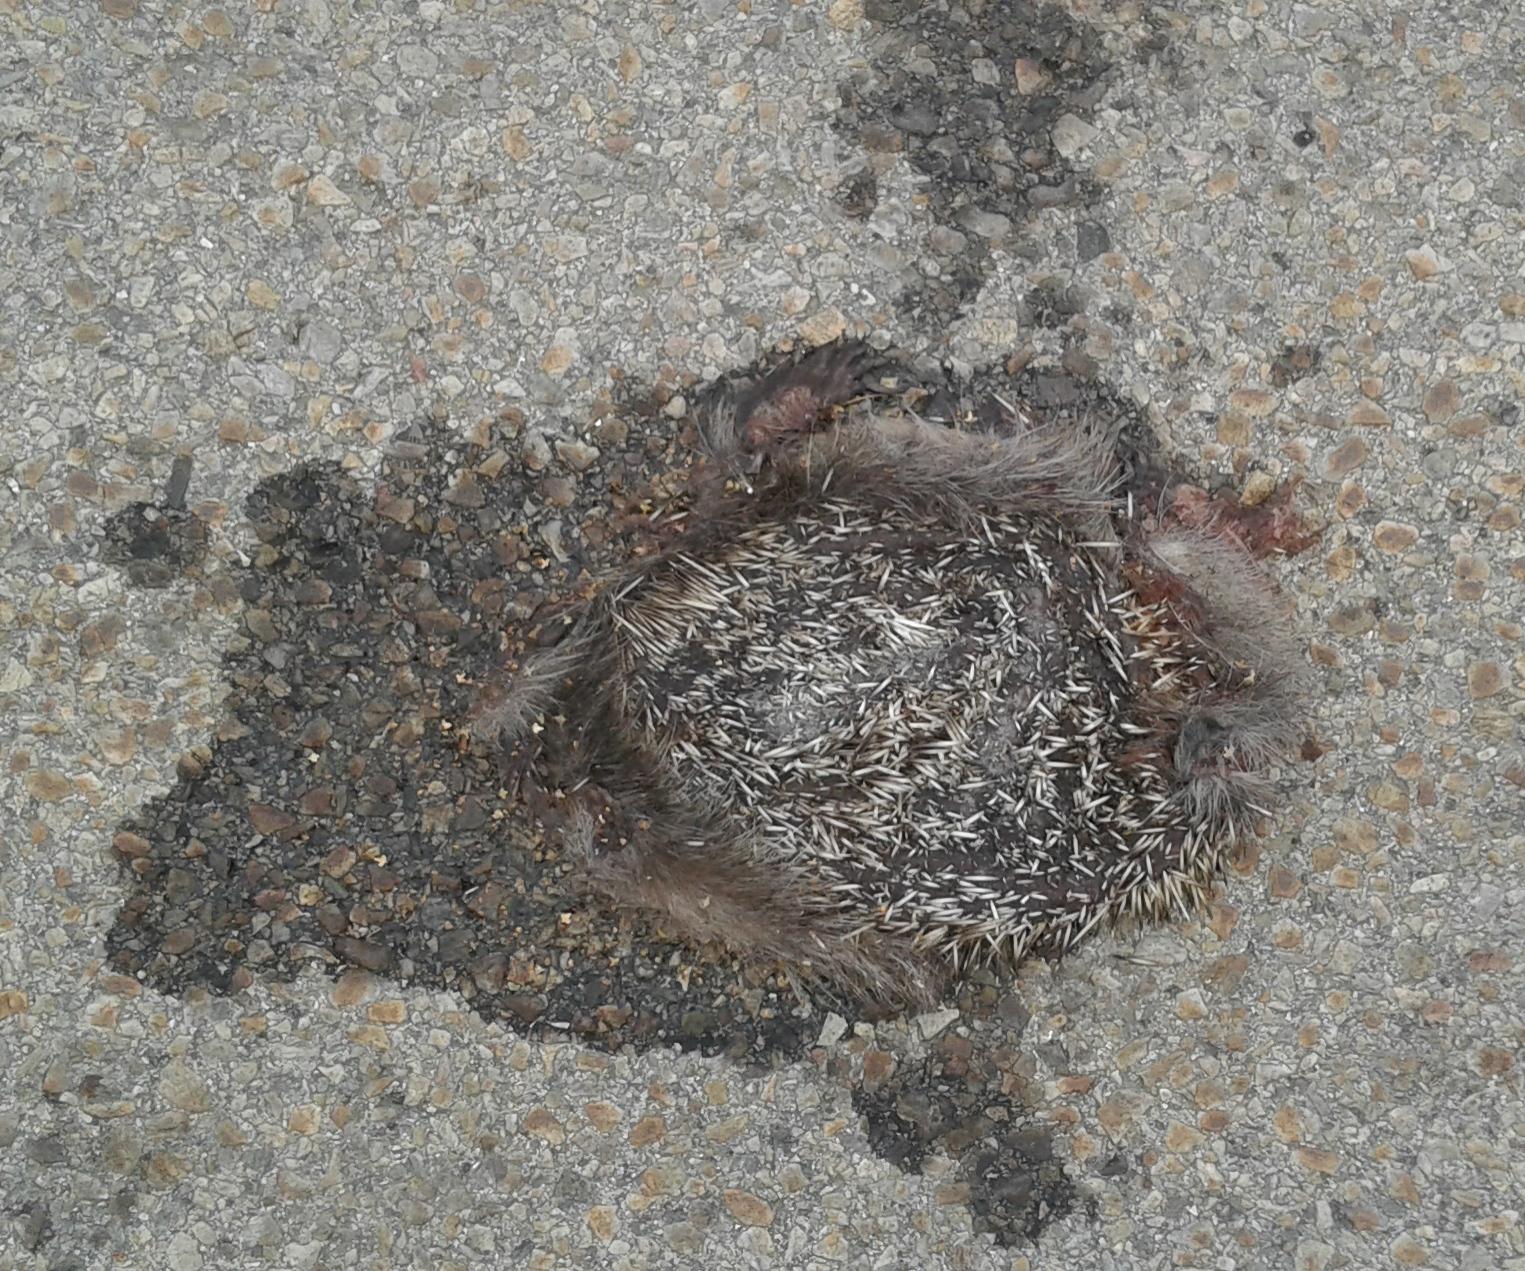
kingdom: Animalia
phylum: Chordata
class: Mammalia
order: Erinaceomorpha
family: Erinaceidae
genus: Erinaceus
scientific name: Erinaceus
